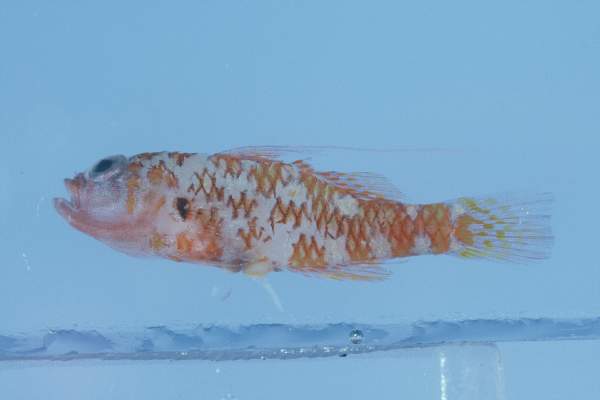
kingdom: Animalia
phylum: Chordata
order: Perciformes
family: Gobiidae
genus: Trimma
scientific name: Trimma naudei
